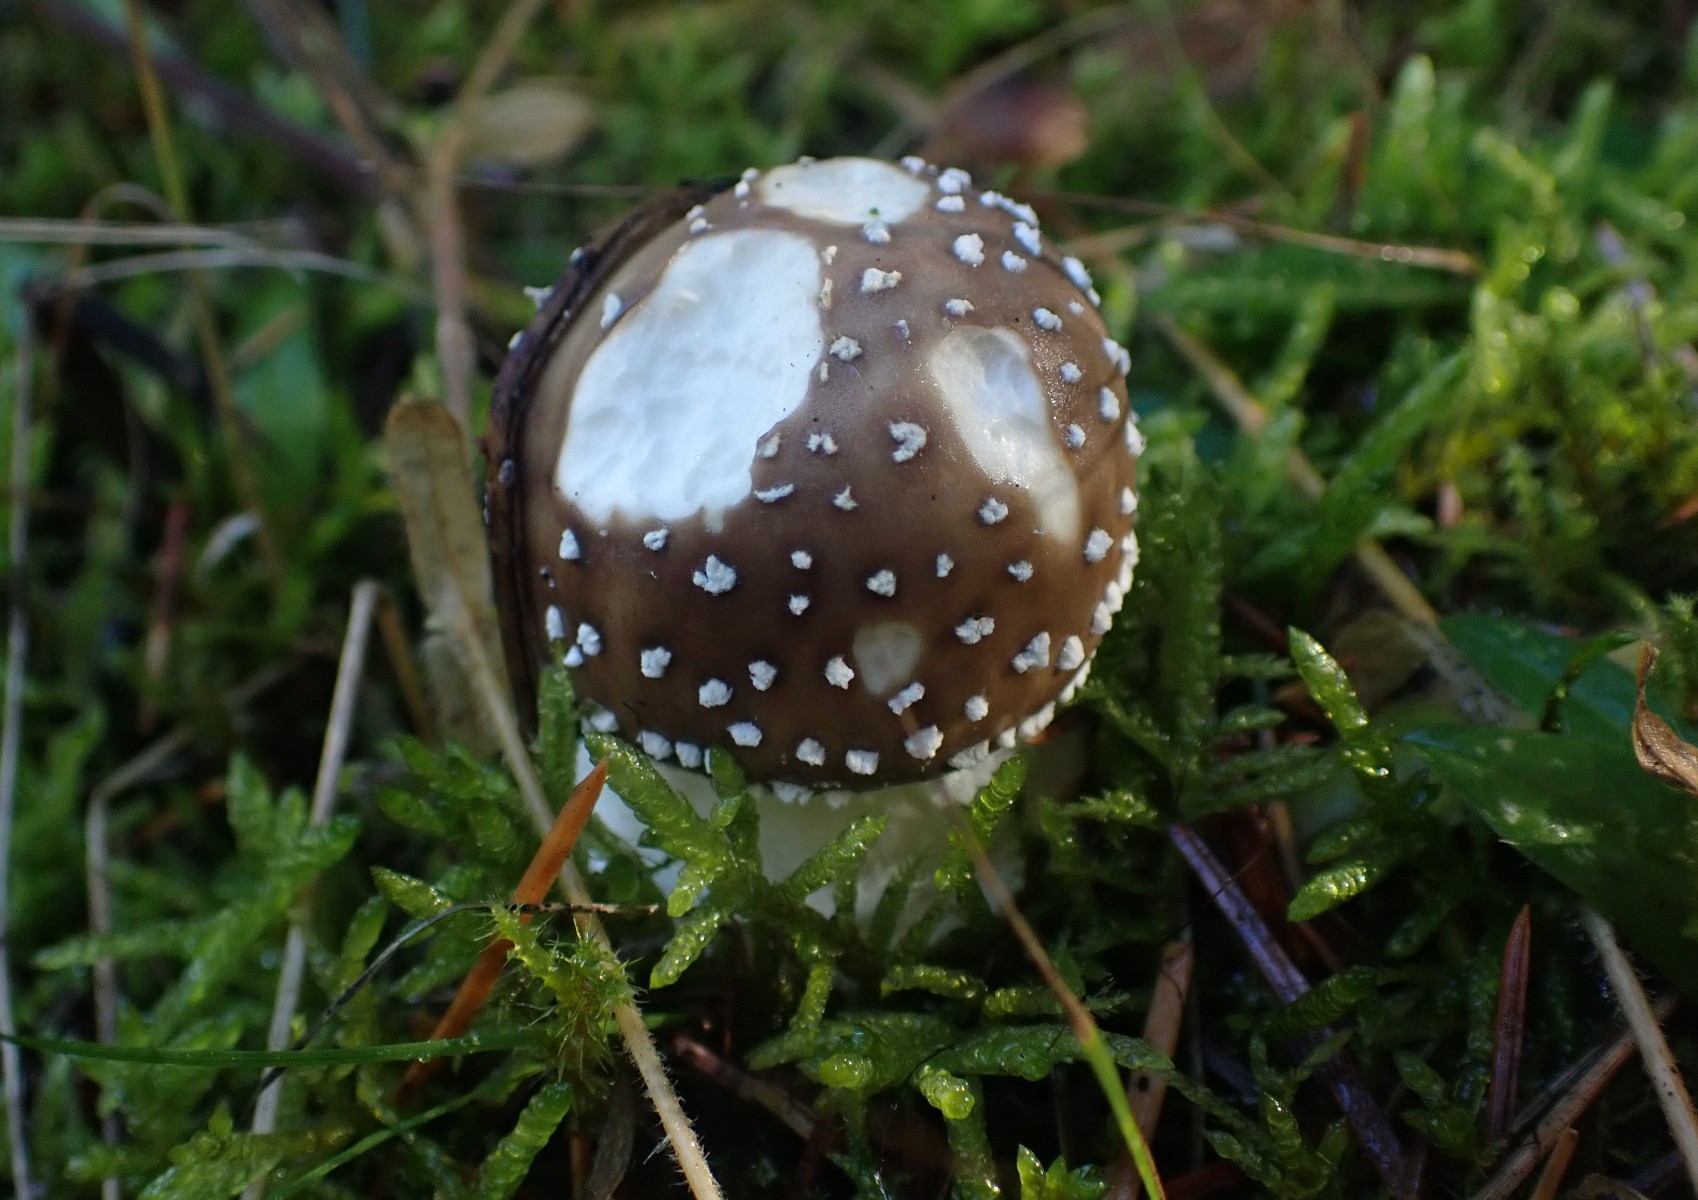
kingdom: Fungi
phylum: Basidiomycota
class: Agaricomycetes
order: Agaricales
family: Amanitaceae
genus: Amanita
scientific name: Amanita pantherina
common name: panter-fluesvamp
